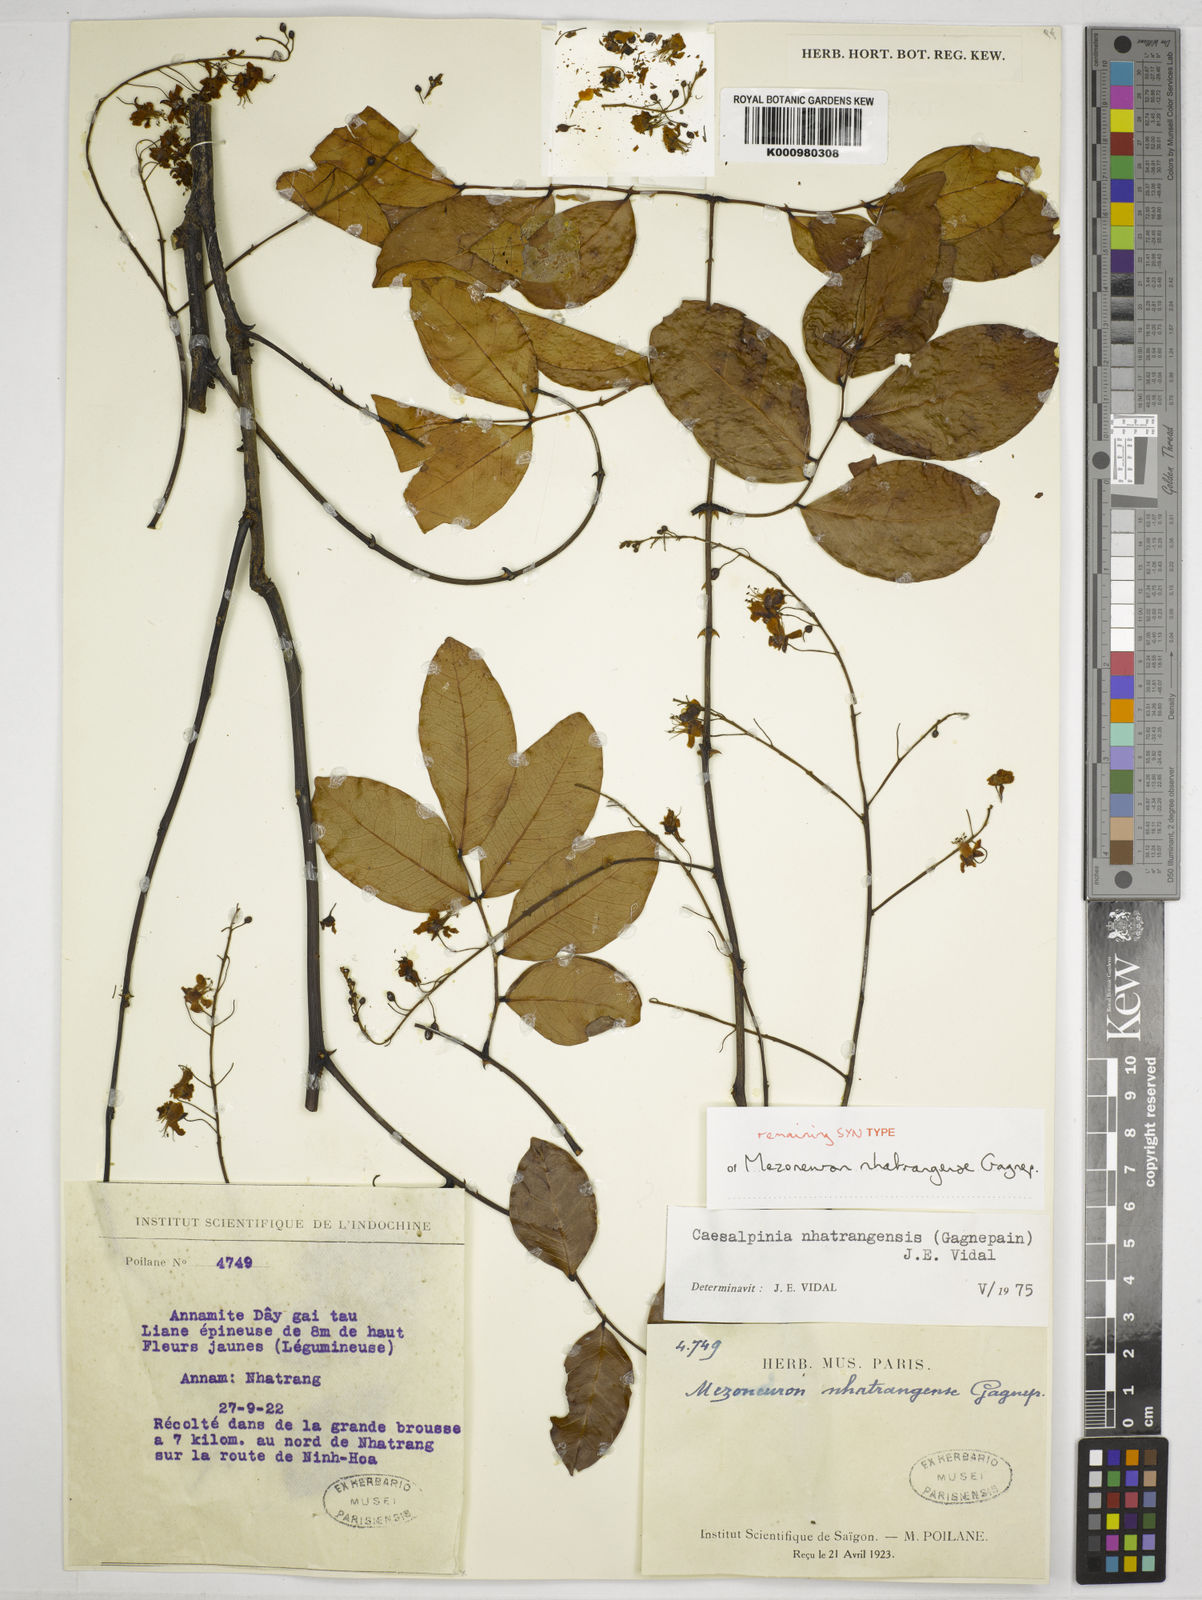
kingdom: Plantae
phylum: Tracheophyta
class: Magnoliopsida
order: Fabales
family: Fabaceae
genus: Mezoneuron
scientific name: Mezoneuron nhatrangense
